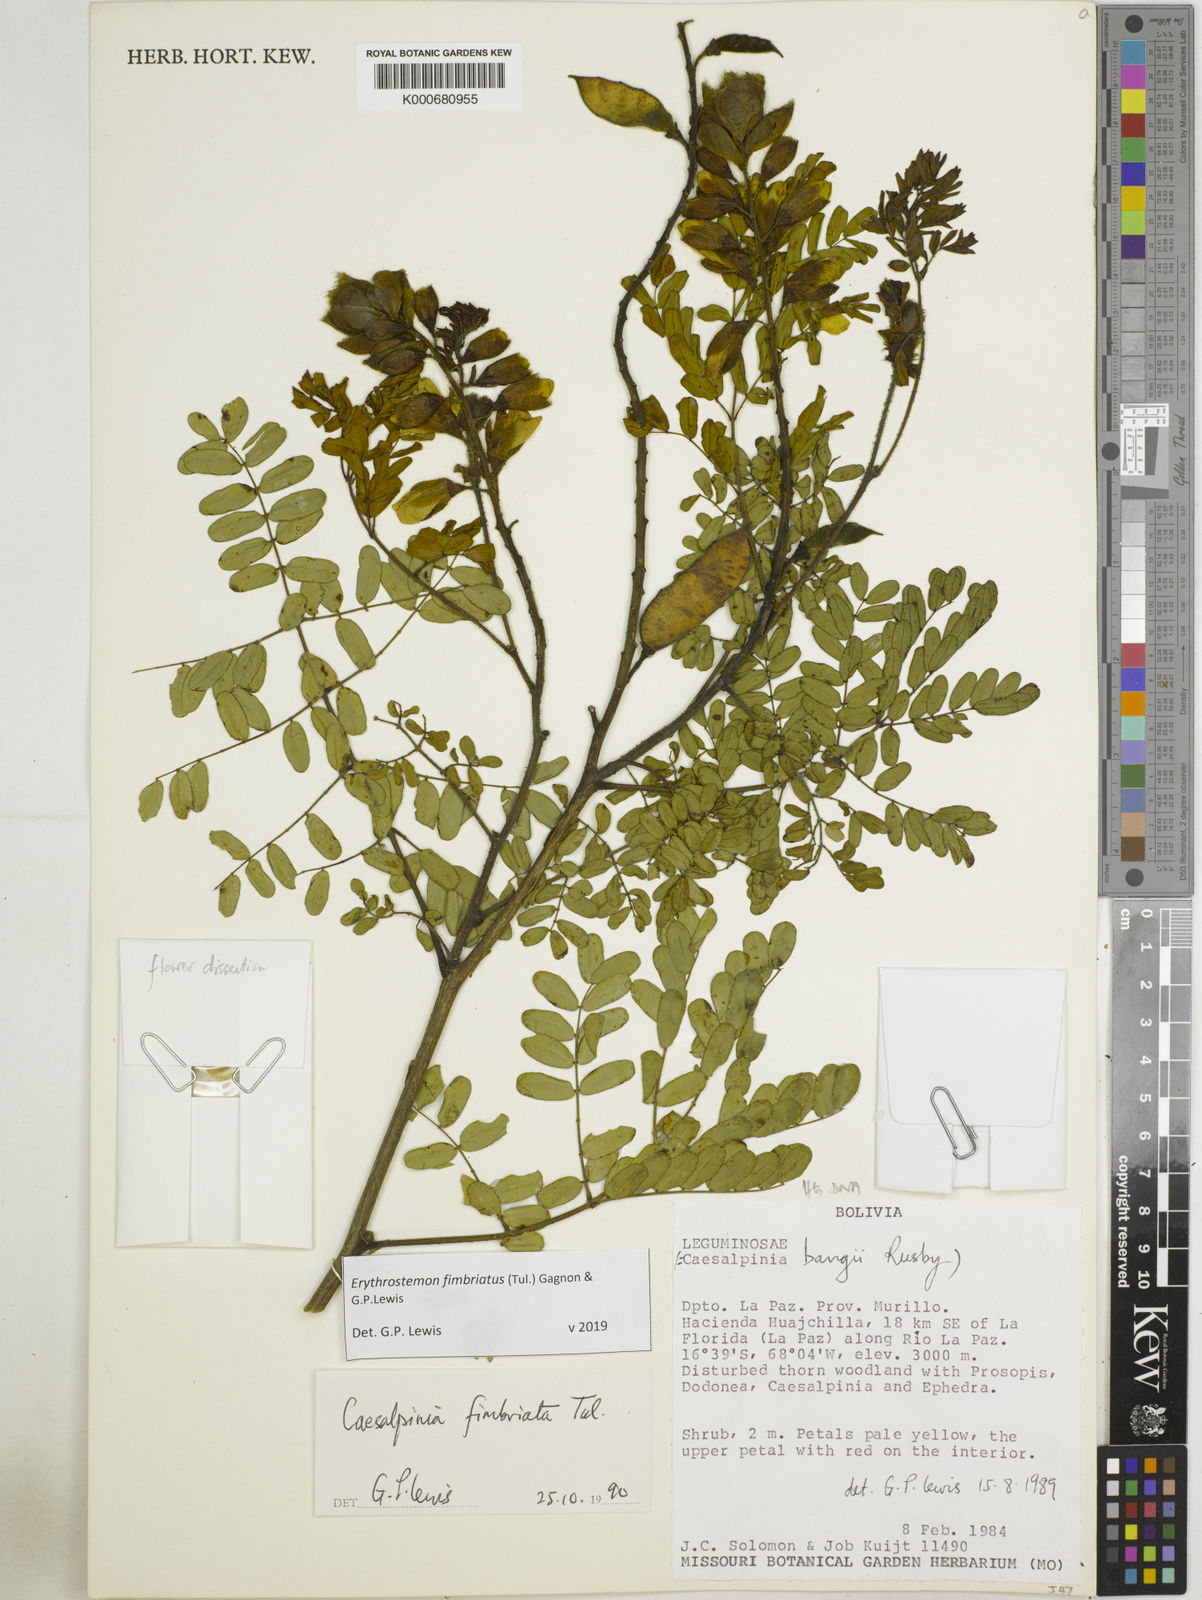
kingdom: Plantae
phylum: Tracheophyta
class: Magnoliopsida
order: Fabales
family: Fabaceae
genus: Erythrostemon
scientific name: Erythrostemon fimbriatus
